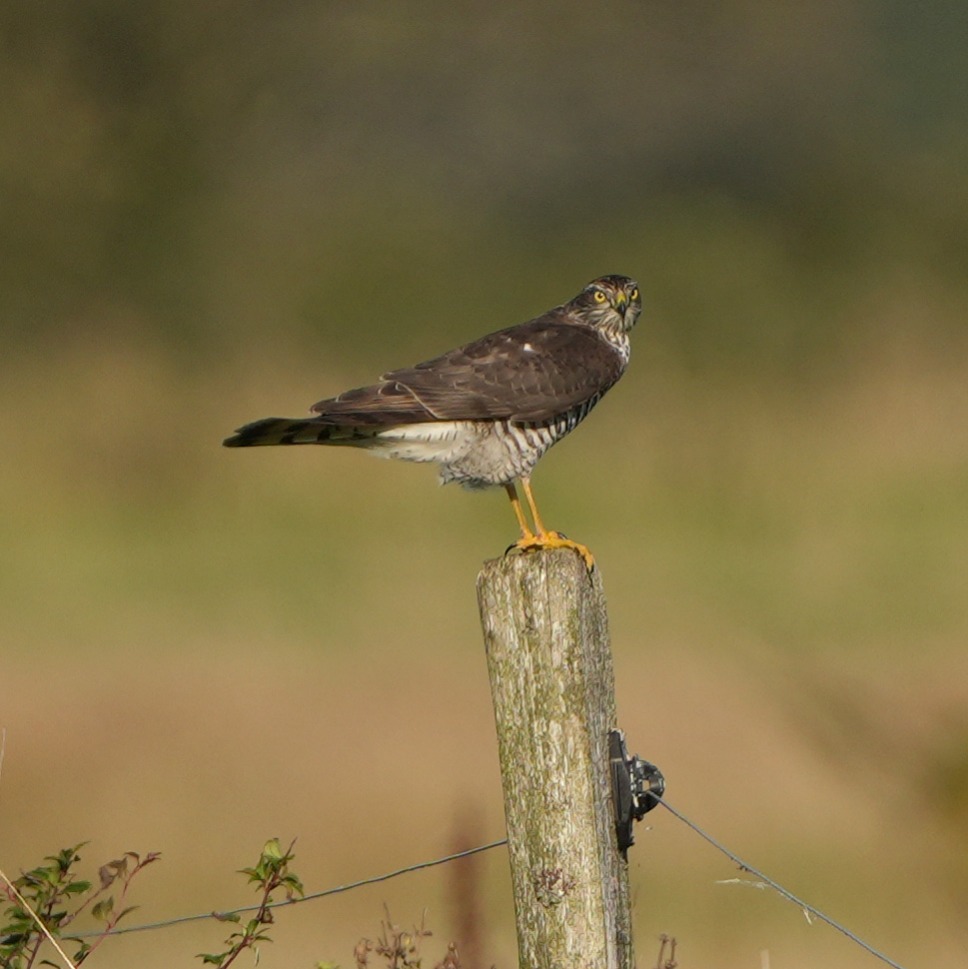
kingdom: Animalia
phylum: Chordata
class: Aves
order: Accipitriformes
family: Accipitridae
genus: Accipiter
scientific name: Accipiter nisus
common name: Spurvehøg
